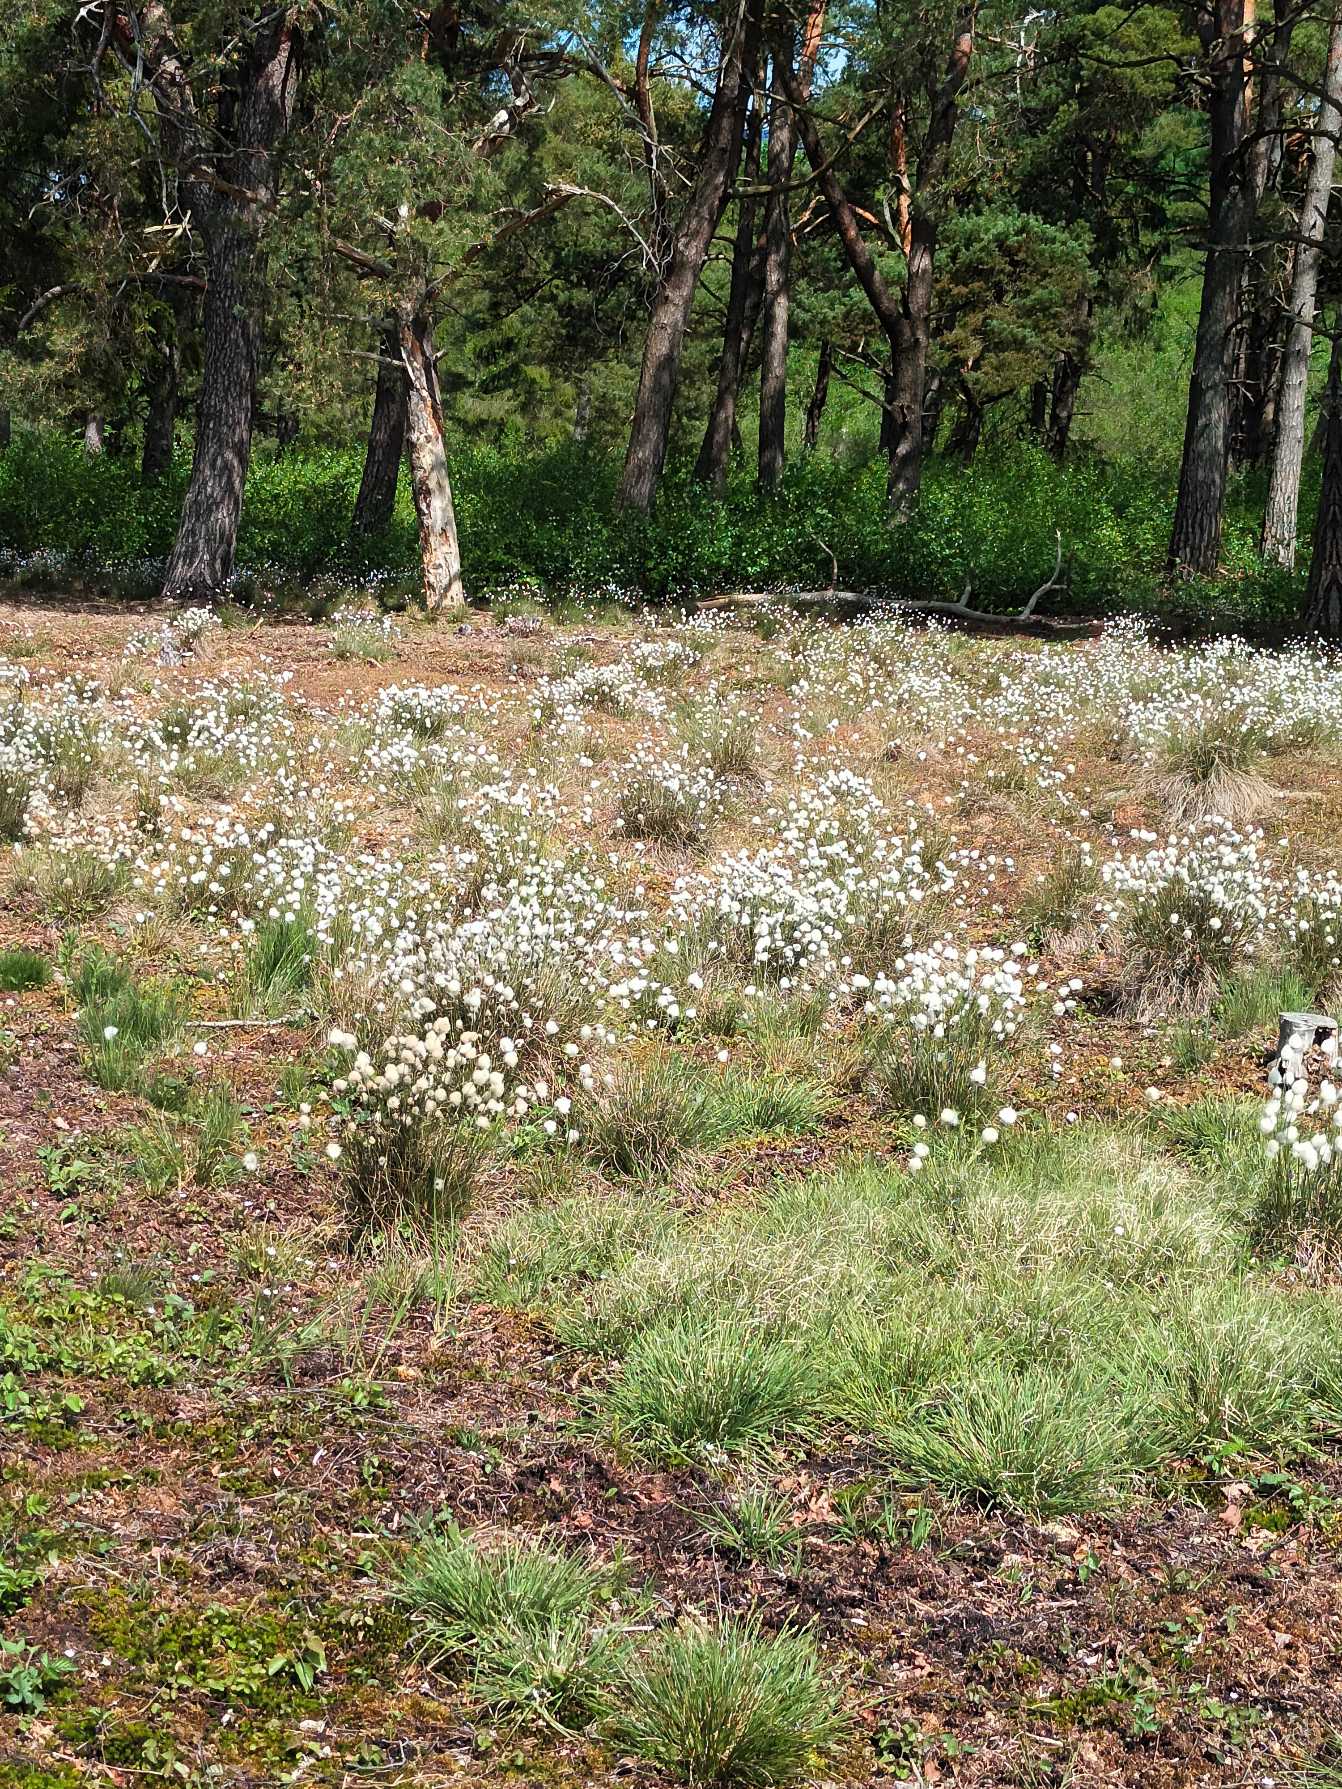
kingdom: Plantae
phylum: Tracheophyta
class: Liliopsida
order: Poales
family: Cyperaceae
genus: Eriophorum
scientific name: Eriophorum vaginatum
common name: Tue-kæruld
